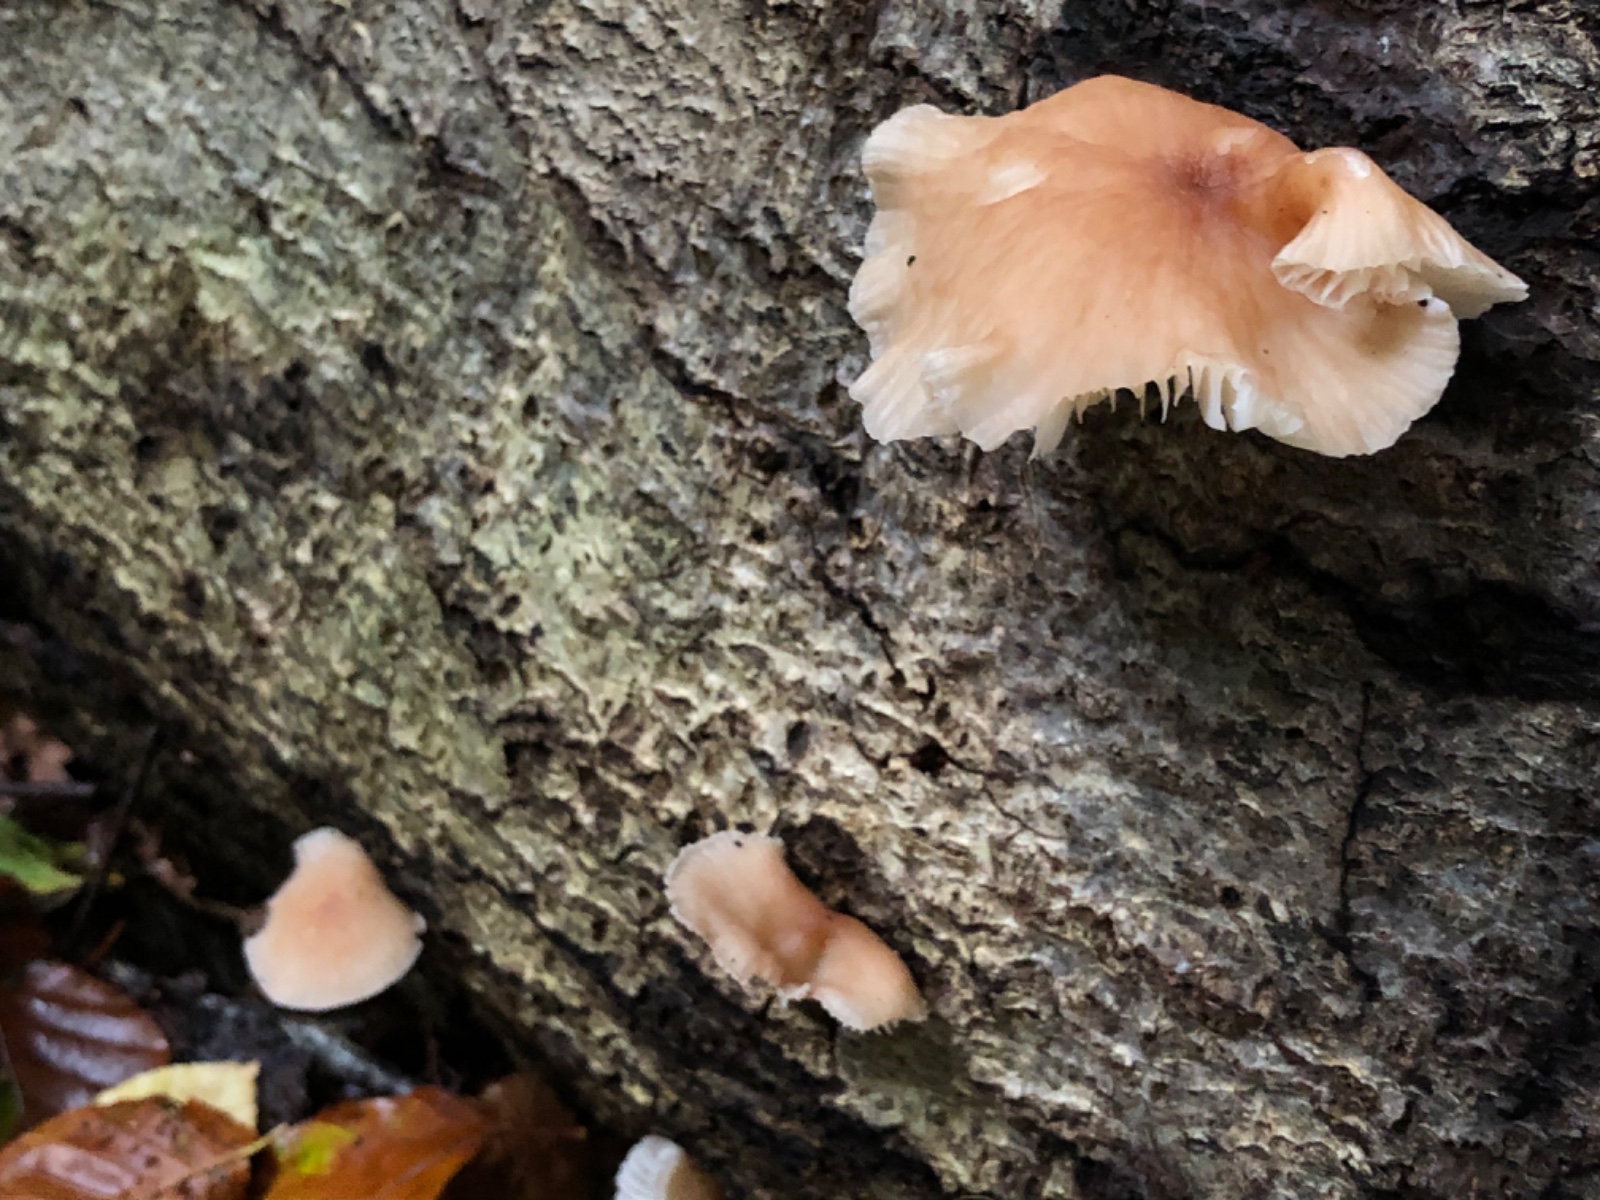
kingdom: Fungi
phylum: Basidiomycota
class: Agaricomycetes
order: Agaricales
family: Omphalotaceae
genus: Gymnopus
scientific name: Gymnopus erythropus
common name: rødstokket fladhat
